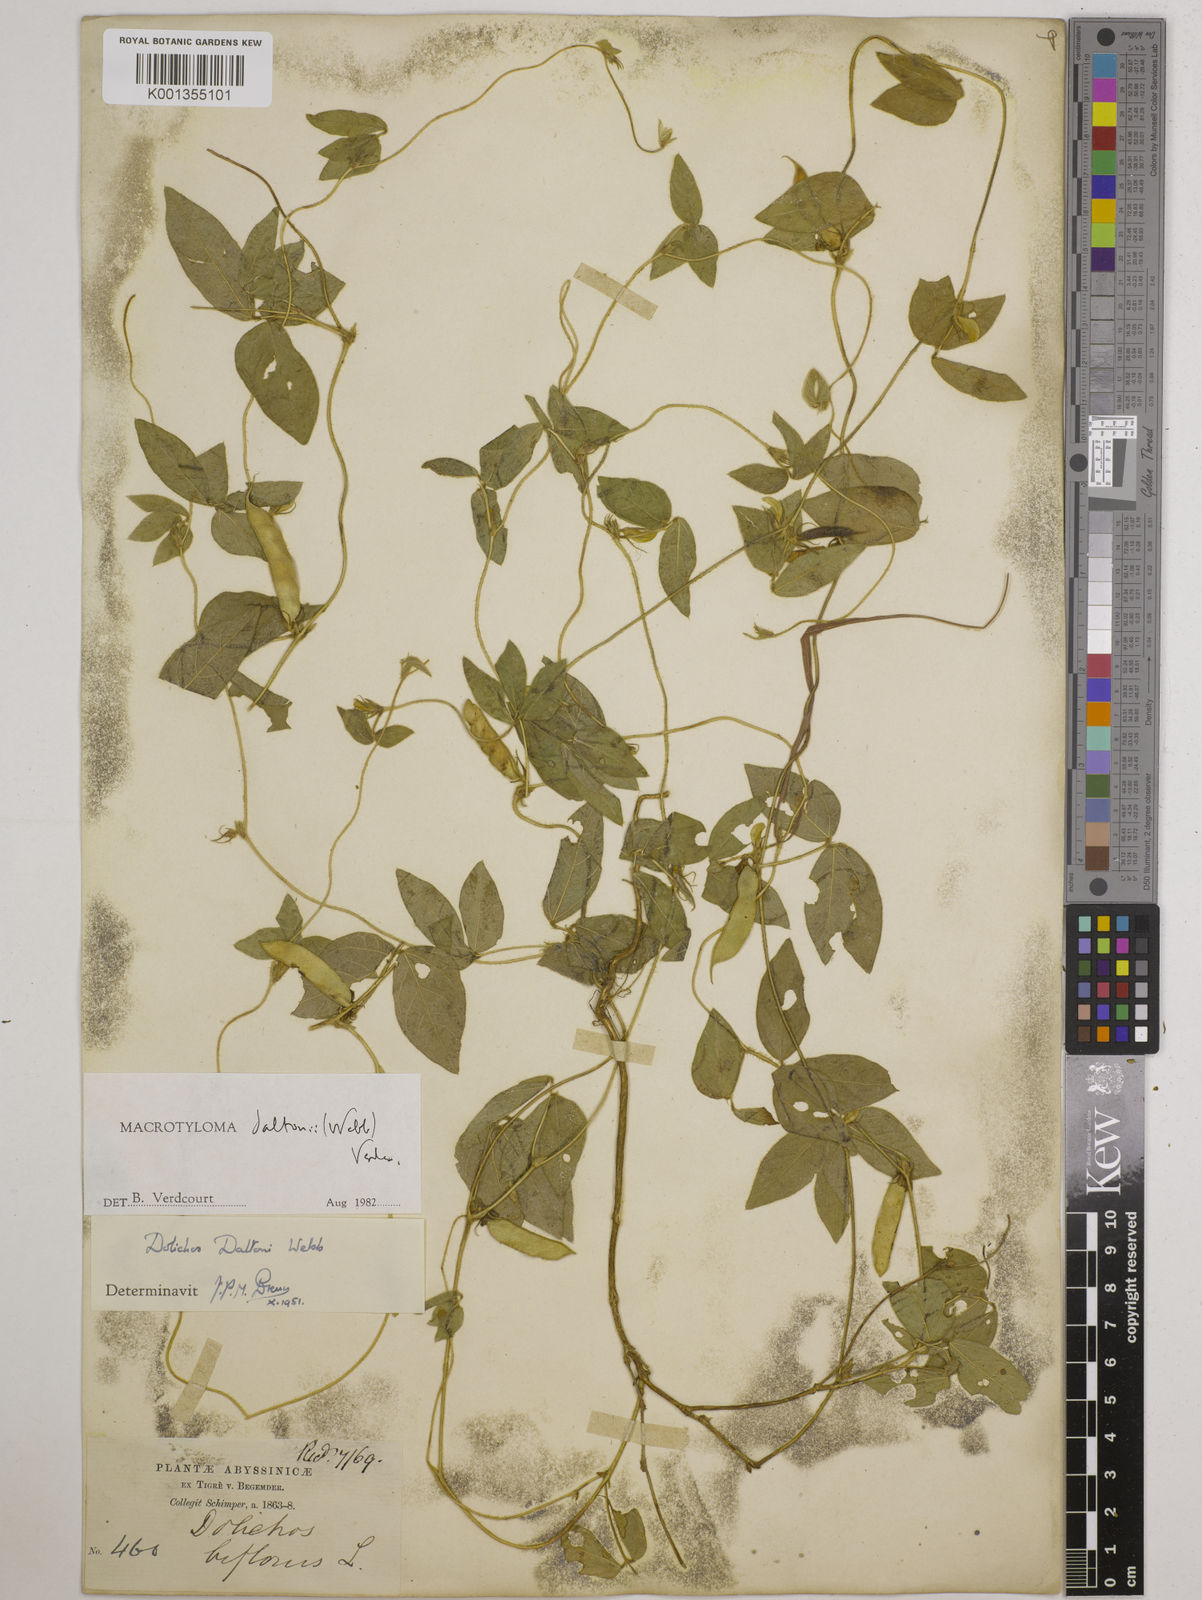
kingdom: Plantae
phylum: Tracheophyta
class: Magnoliopsida
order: Fabales
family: Fabaceae
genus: Macrotyloma
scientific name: Macrotyloma daltonii
